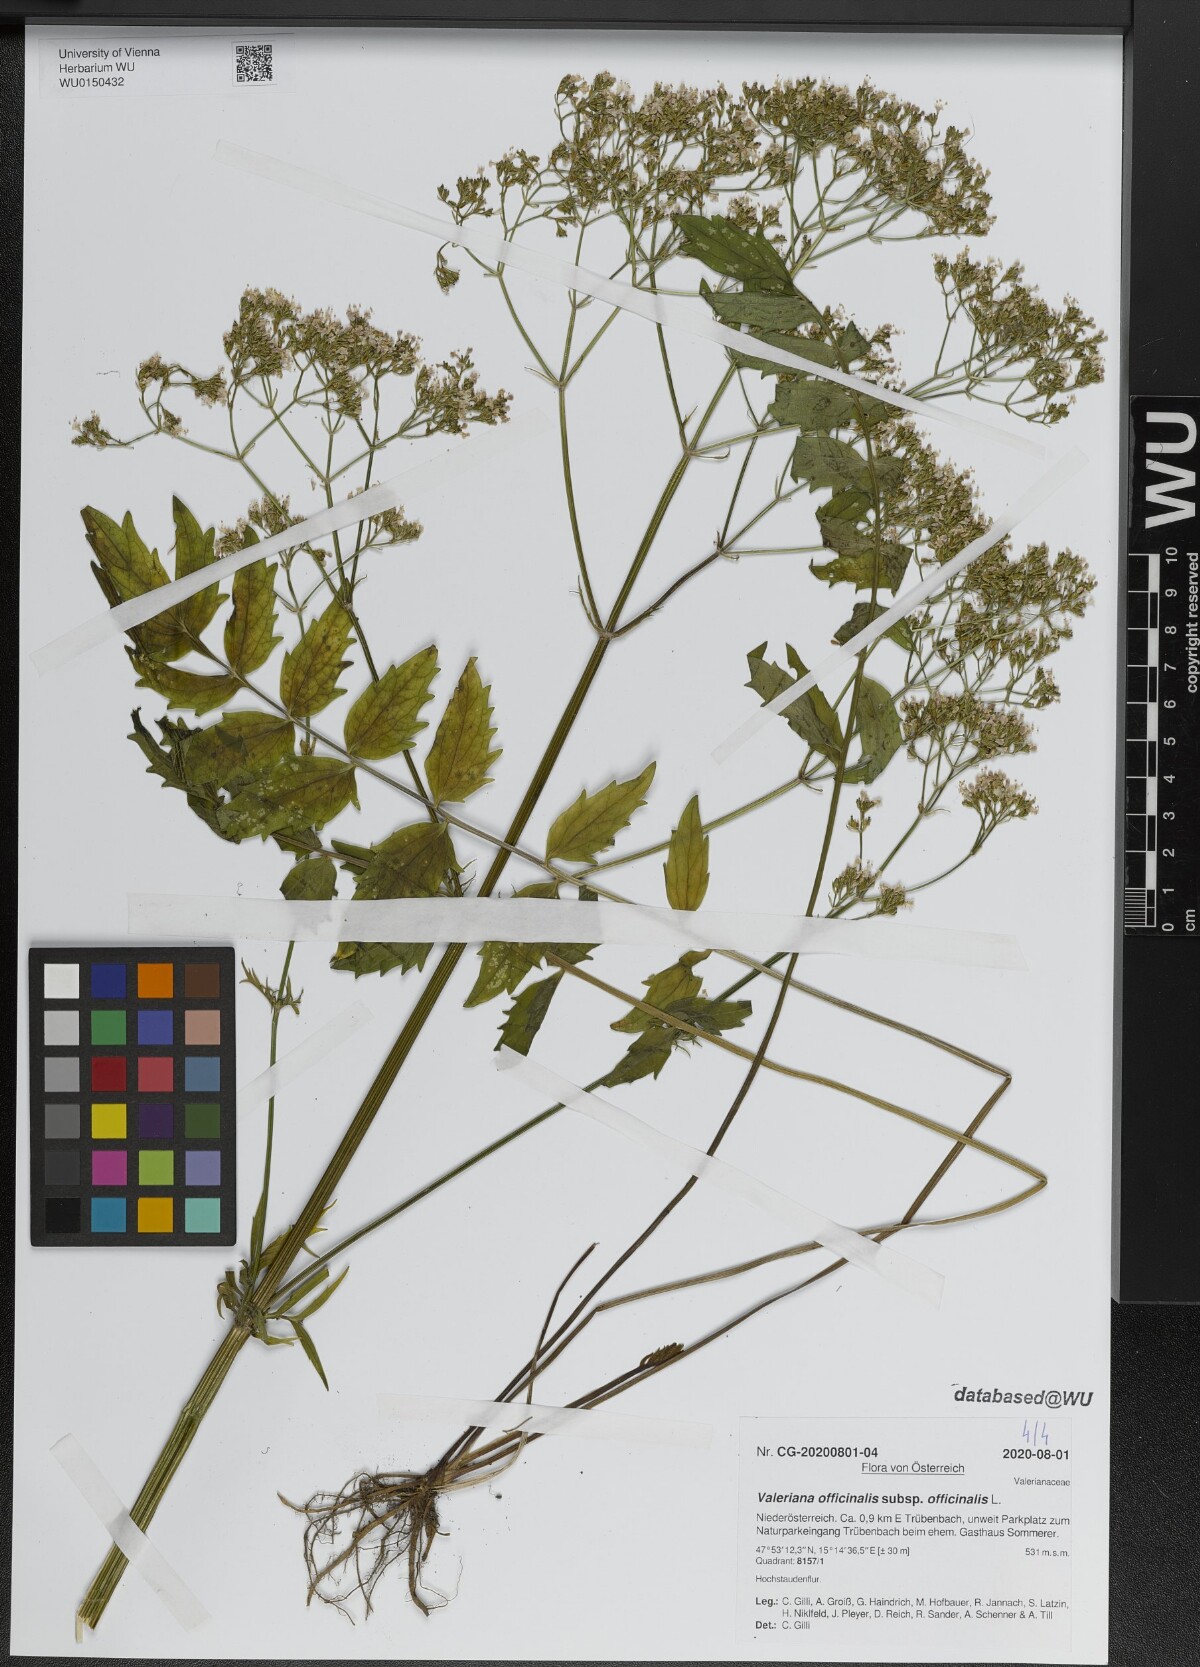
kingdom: Plantae
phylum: Tracheophyta
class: Magnoliopsida
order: Dipsacales
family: Caprifoliaceae
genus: Valeriana
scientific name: Valeriana officinalis
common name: Common valerian
